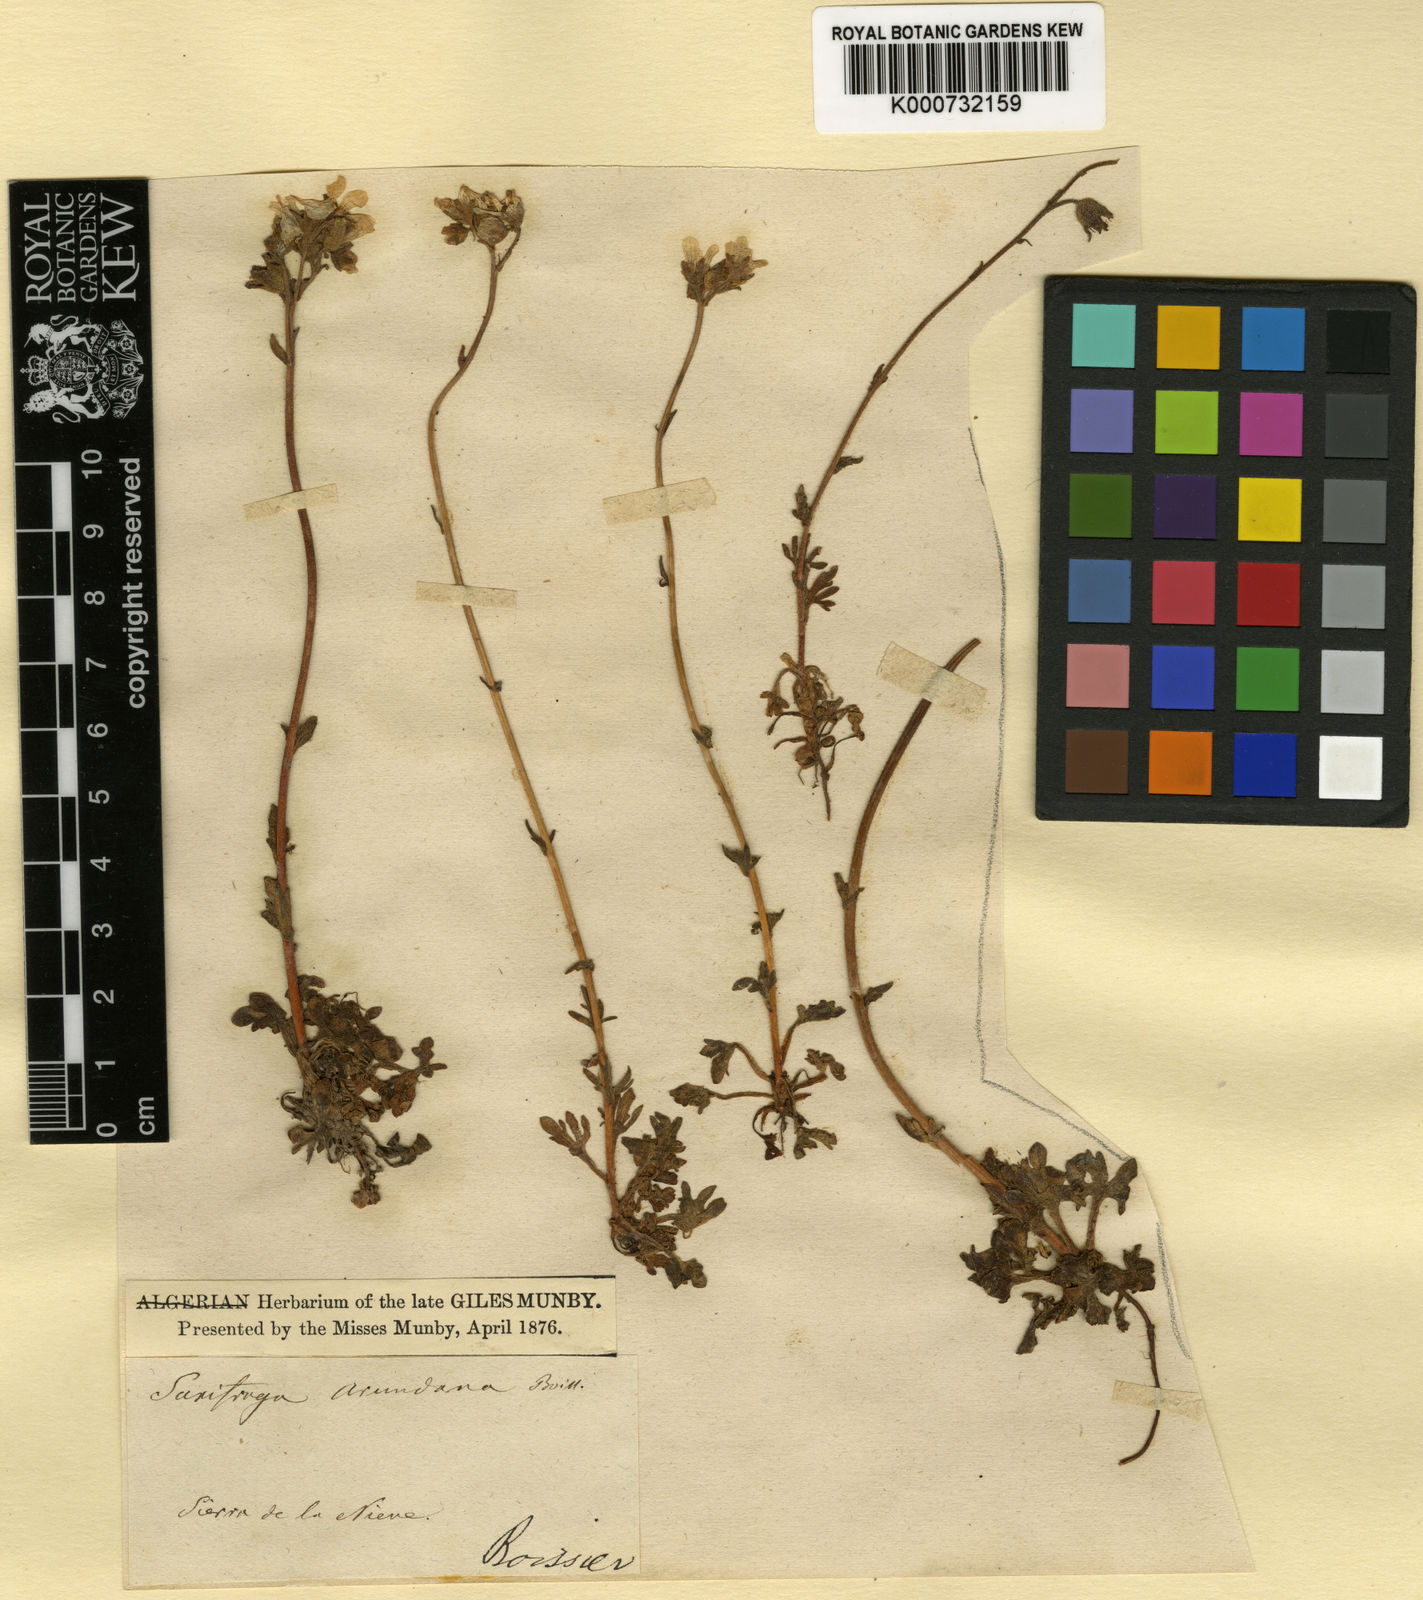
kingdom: Plantae
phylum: Tracheophyta
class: Magnoliopsida
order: Saxifragales
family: Saxifragaceae
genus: Saxifraga
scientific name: Saxifraga
